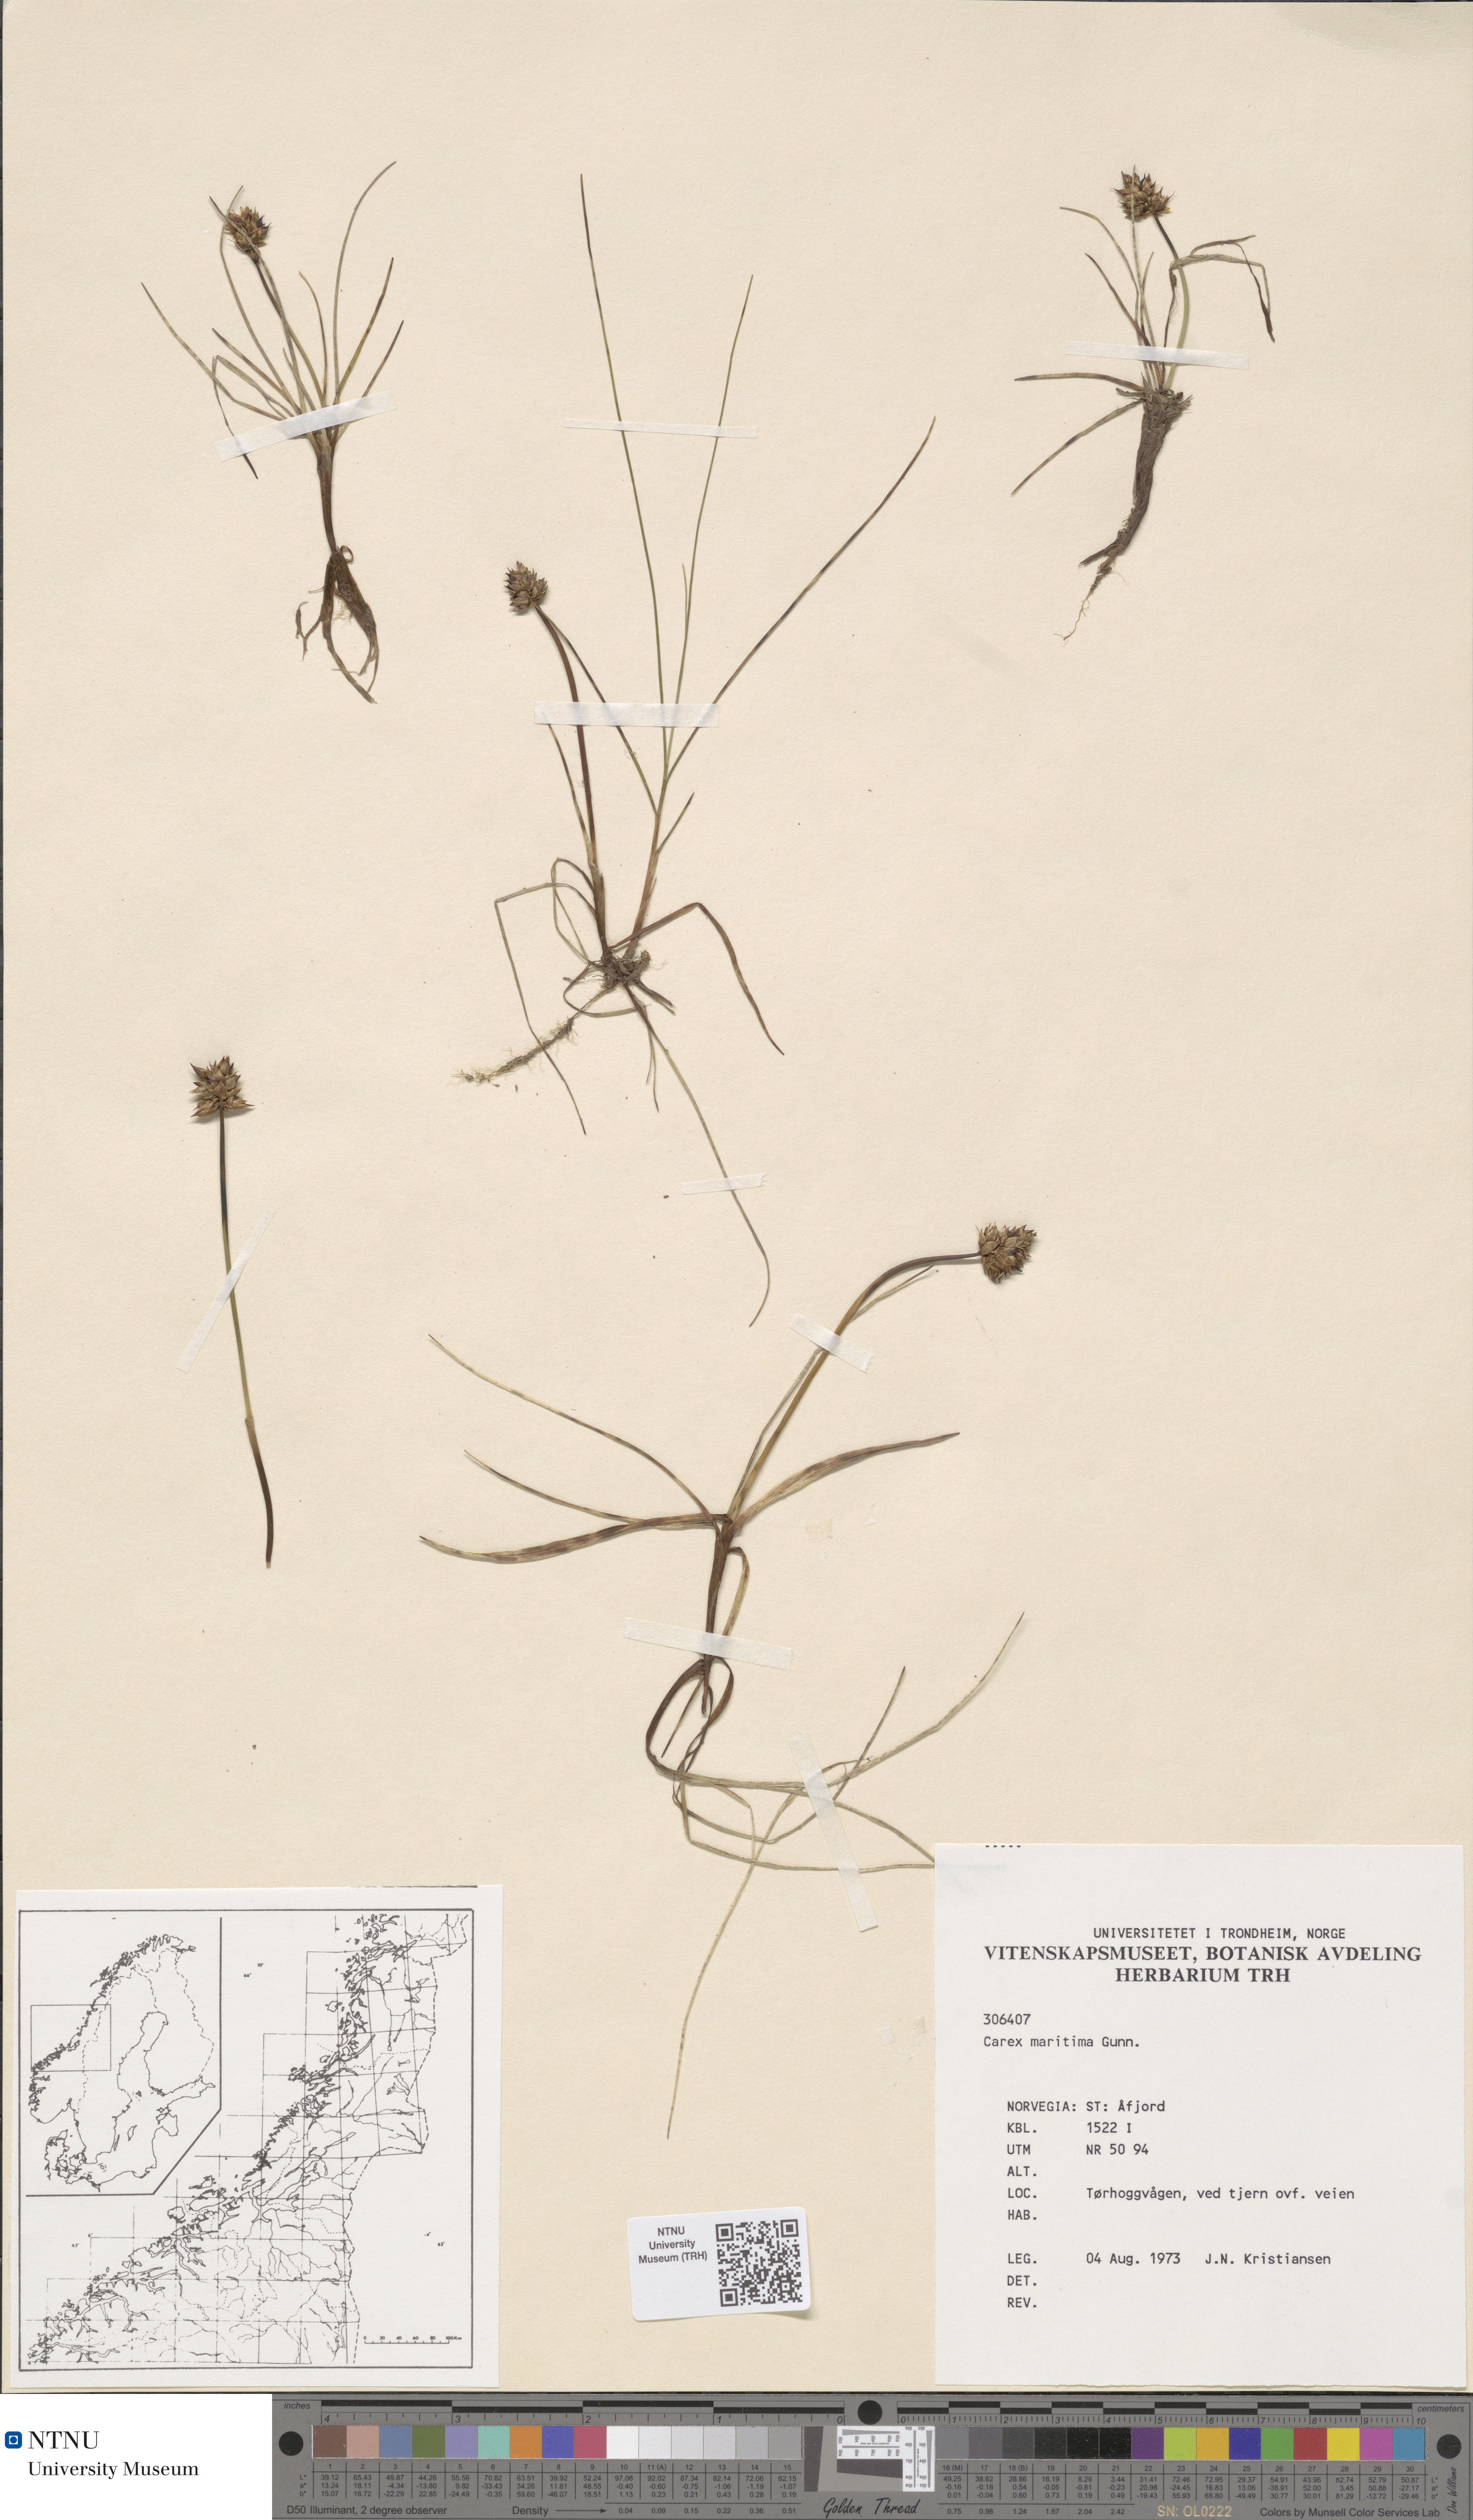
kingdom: Plantae
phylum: Tracheophyta
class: Liliopsida
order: Poales
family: Cyperaceae
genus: Carex
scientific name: Carex maritima
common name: Curved sedge
